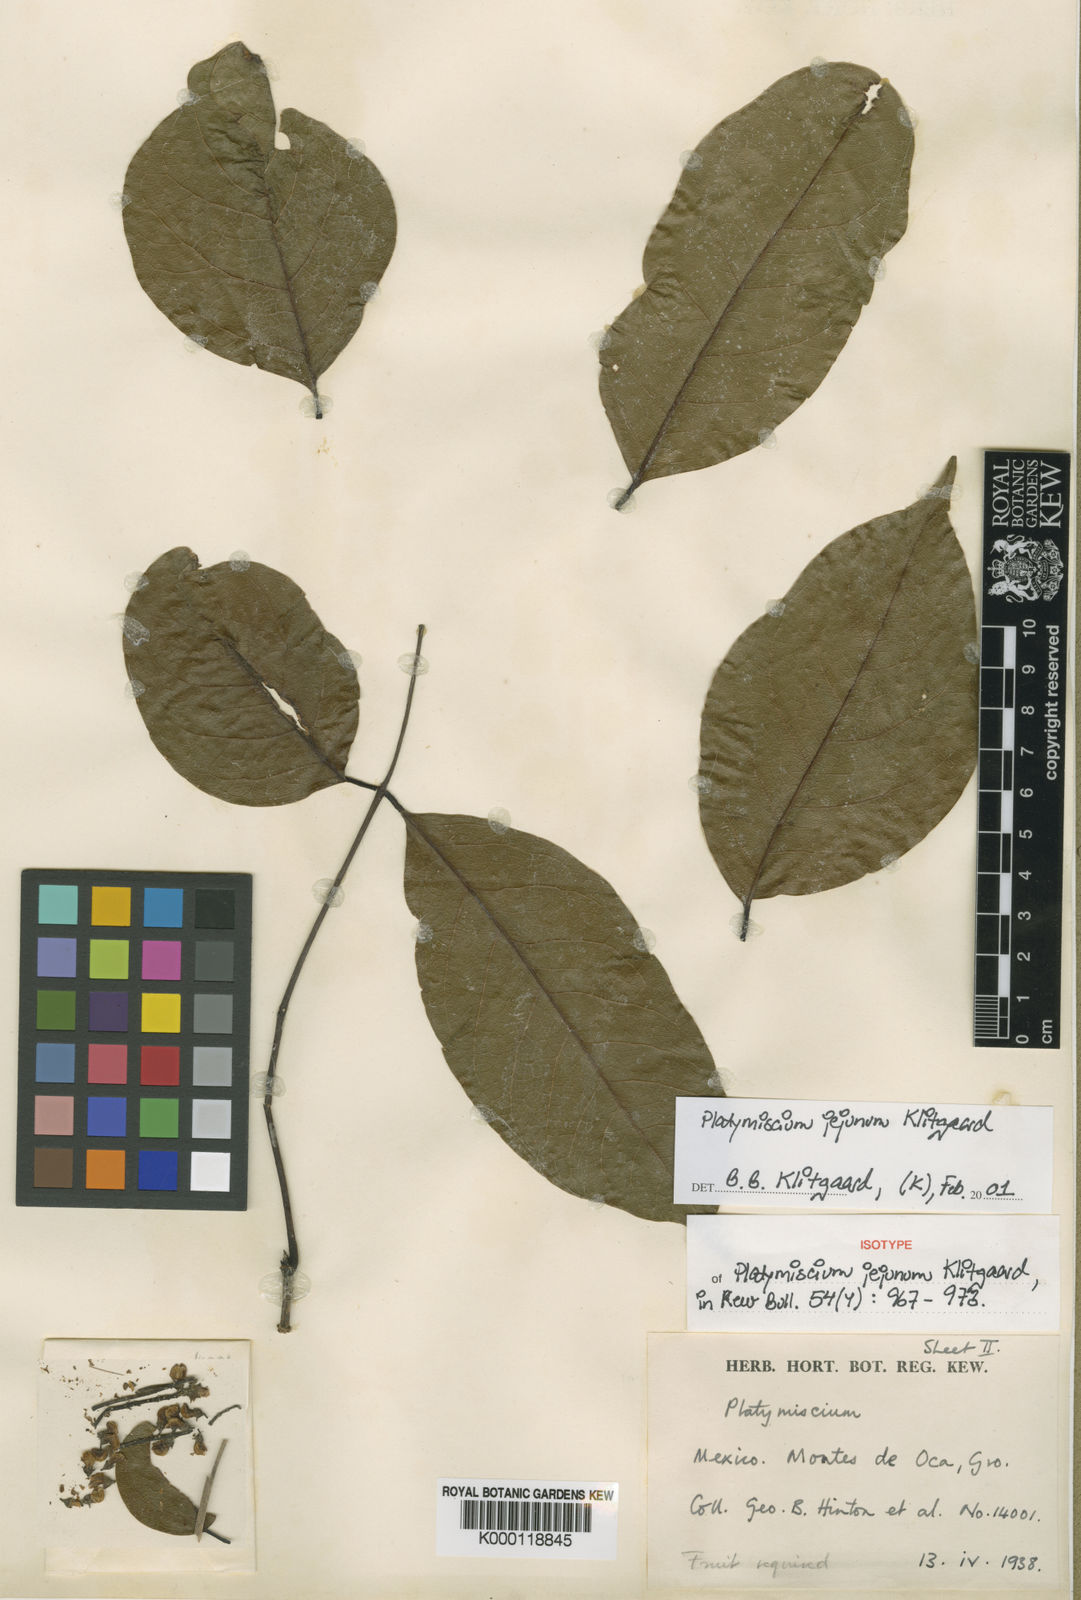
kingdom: Plantae
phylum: Tracheophyta
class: Magnoliopsida
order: Fabales
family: Fabaceae
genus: Platymiscium
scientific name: Platymiscium jejunum
